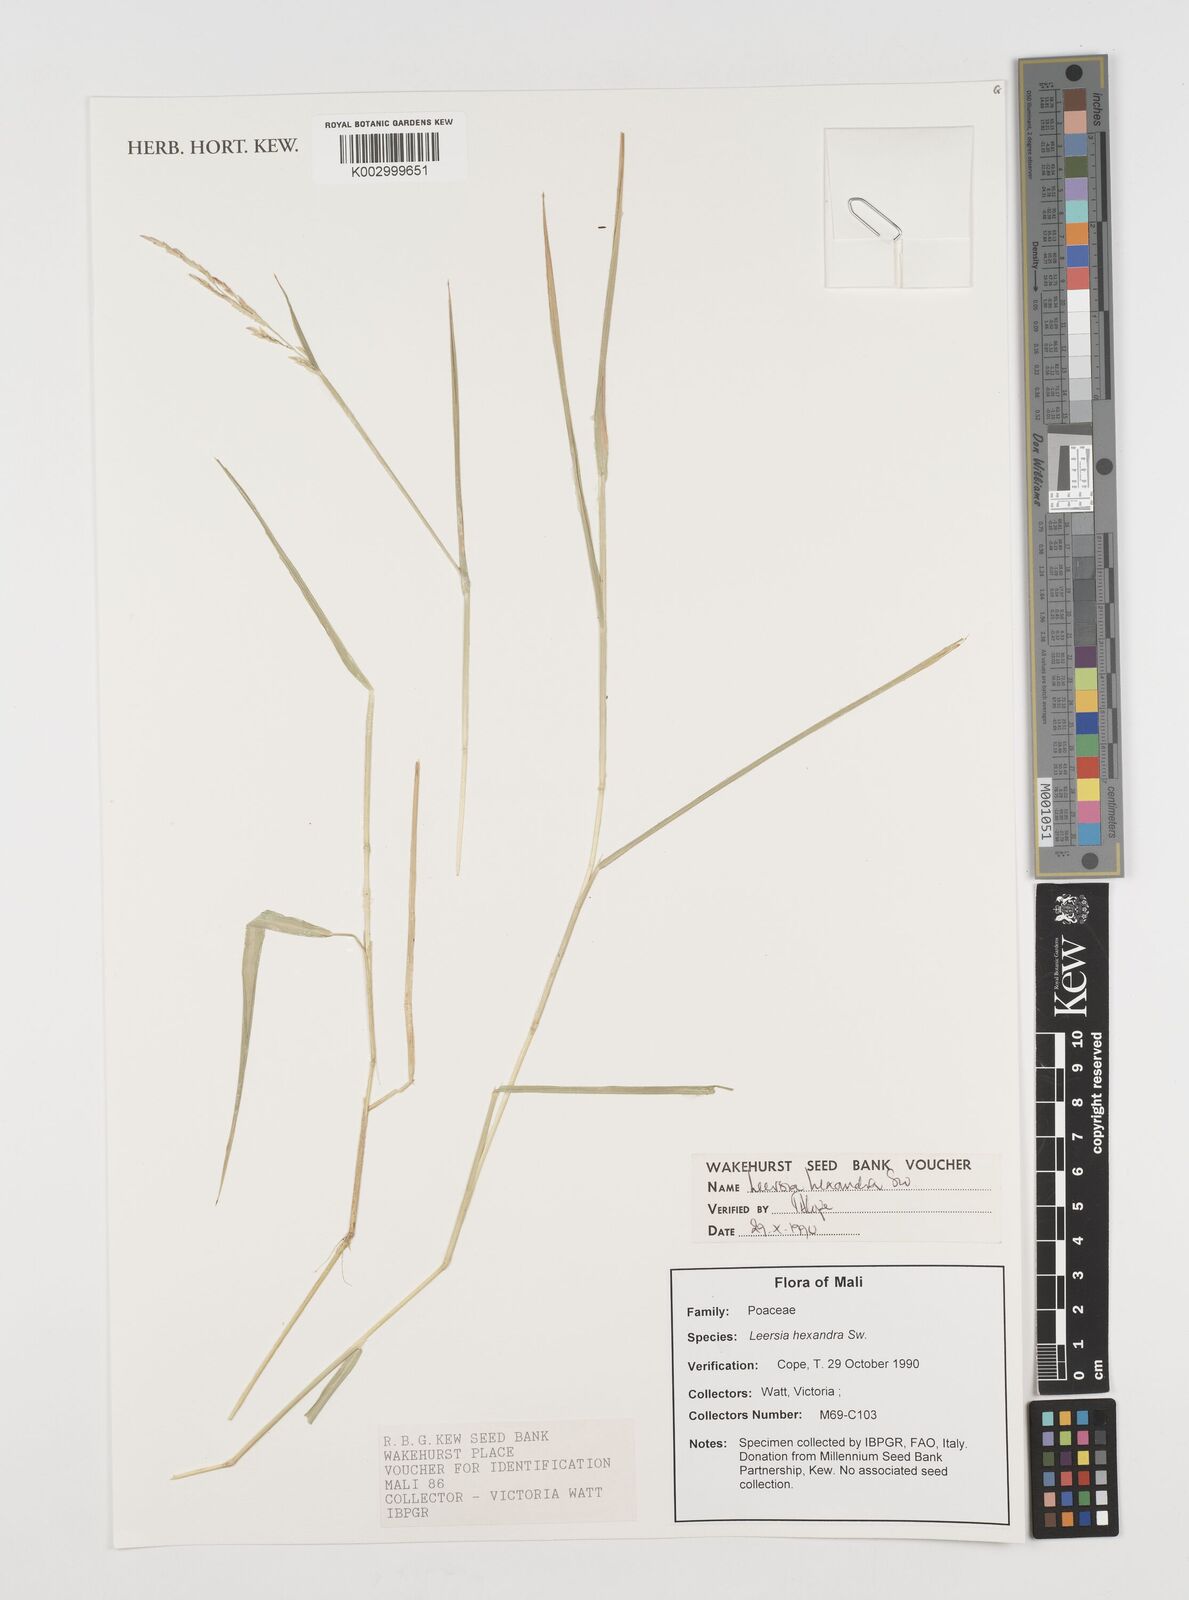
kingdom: Plantae
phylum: Tracheophyta
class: Liliopsida
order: Poales
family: Poaceae
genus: Leersia
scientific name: Leersia hexandra
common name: Southern cut grass
